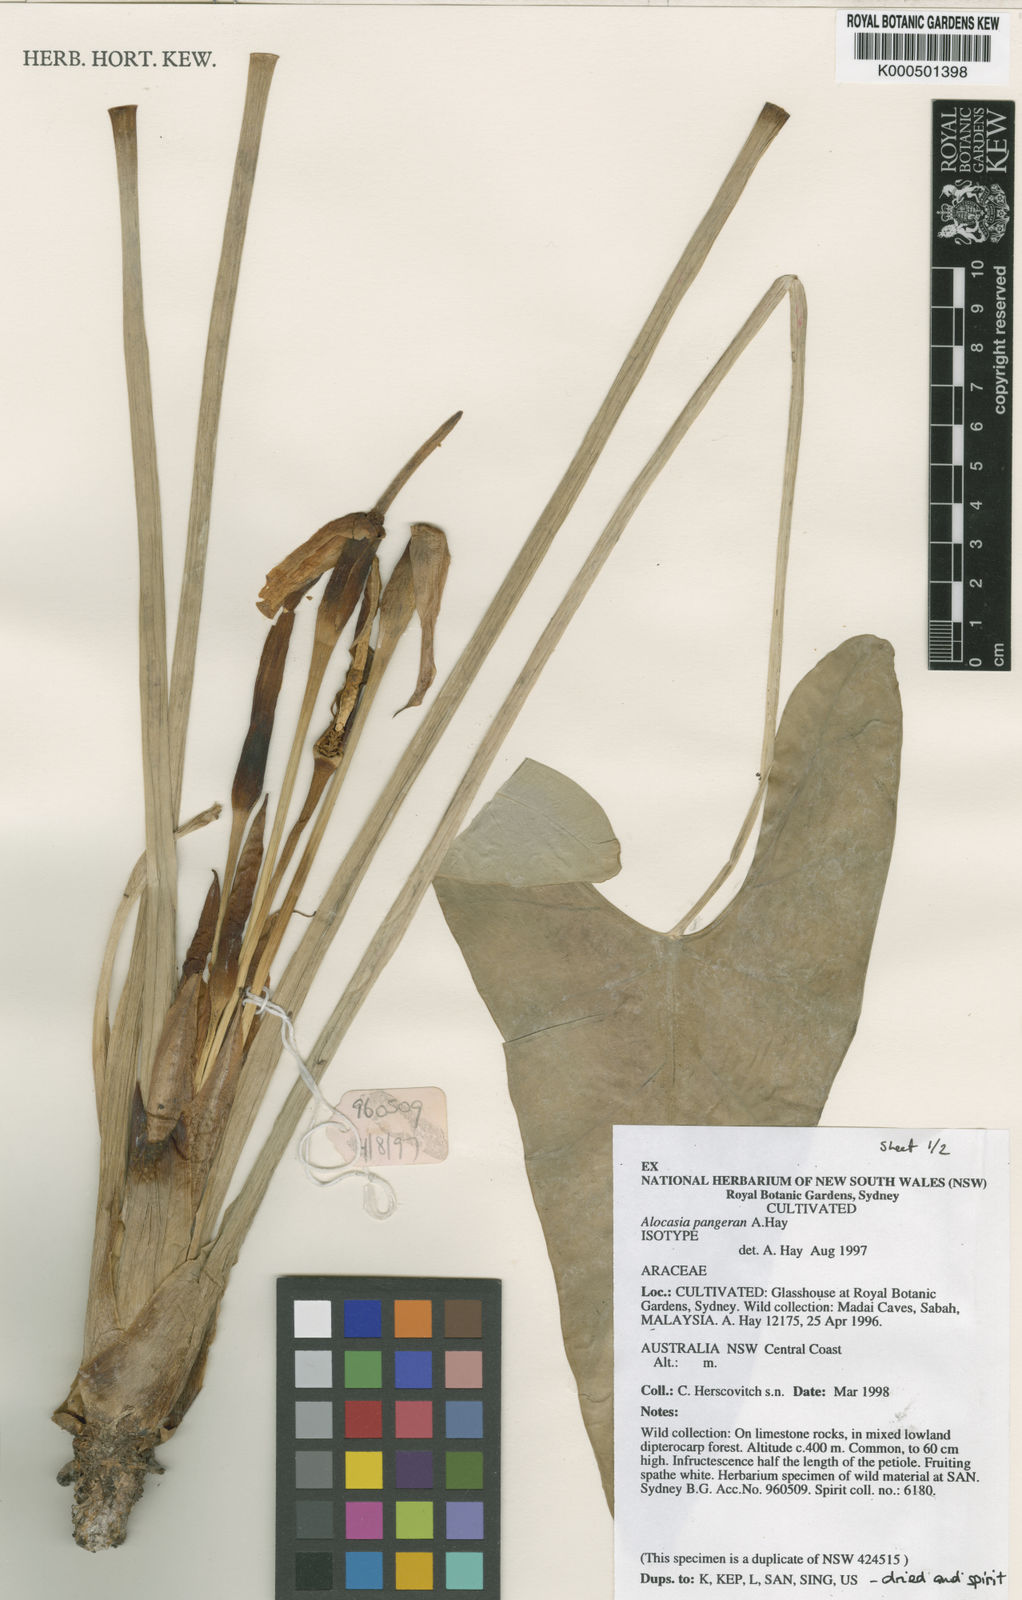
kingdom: Plantae
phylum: Tracheophyta
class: Liliopsida
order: Alismatales
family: Araceae
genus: Alocasia
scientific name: Alocasia pangeran
